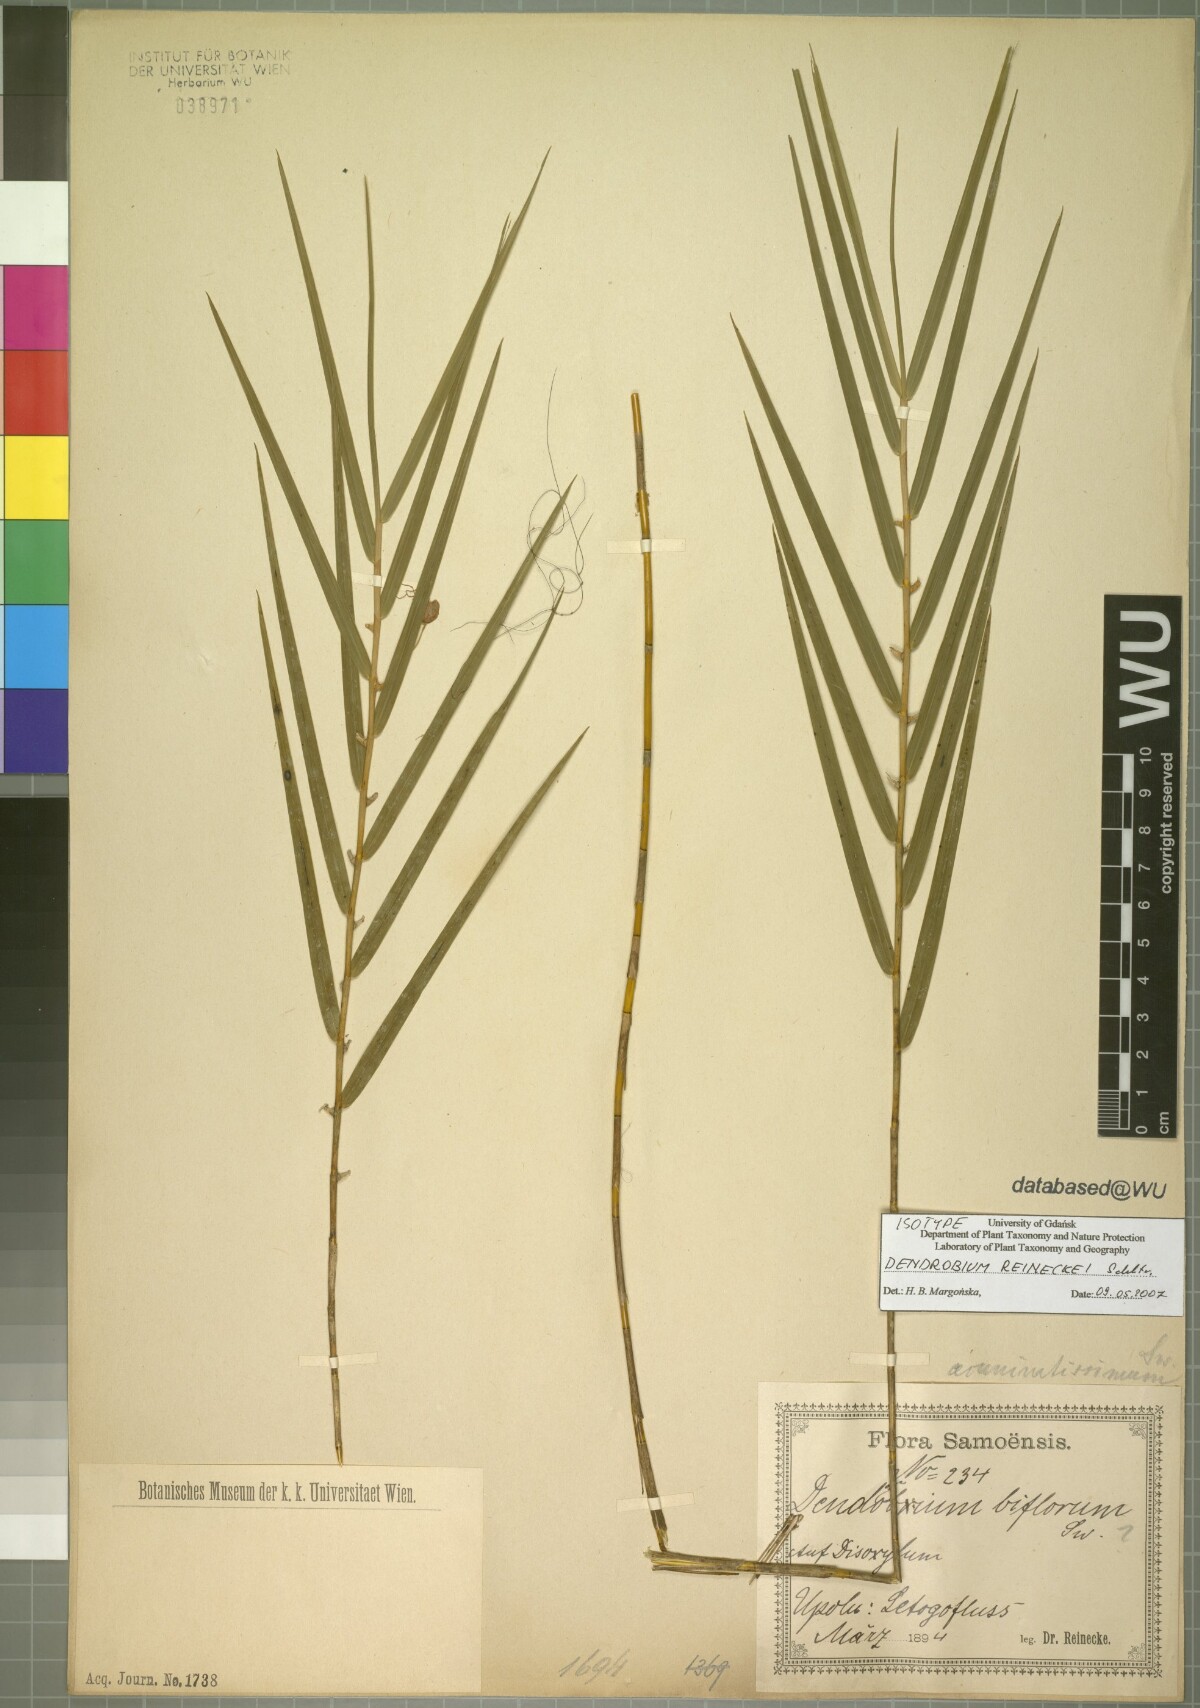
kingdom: Plantae
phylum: Tracheophyta
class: Liliopsida
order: Asparagales
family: Orchidaceae
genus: Dendrobium
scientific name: Dendrobium reineckei
